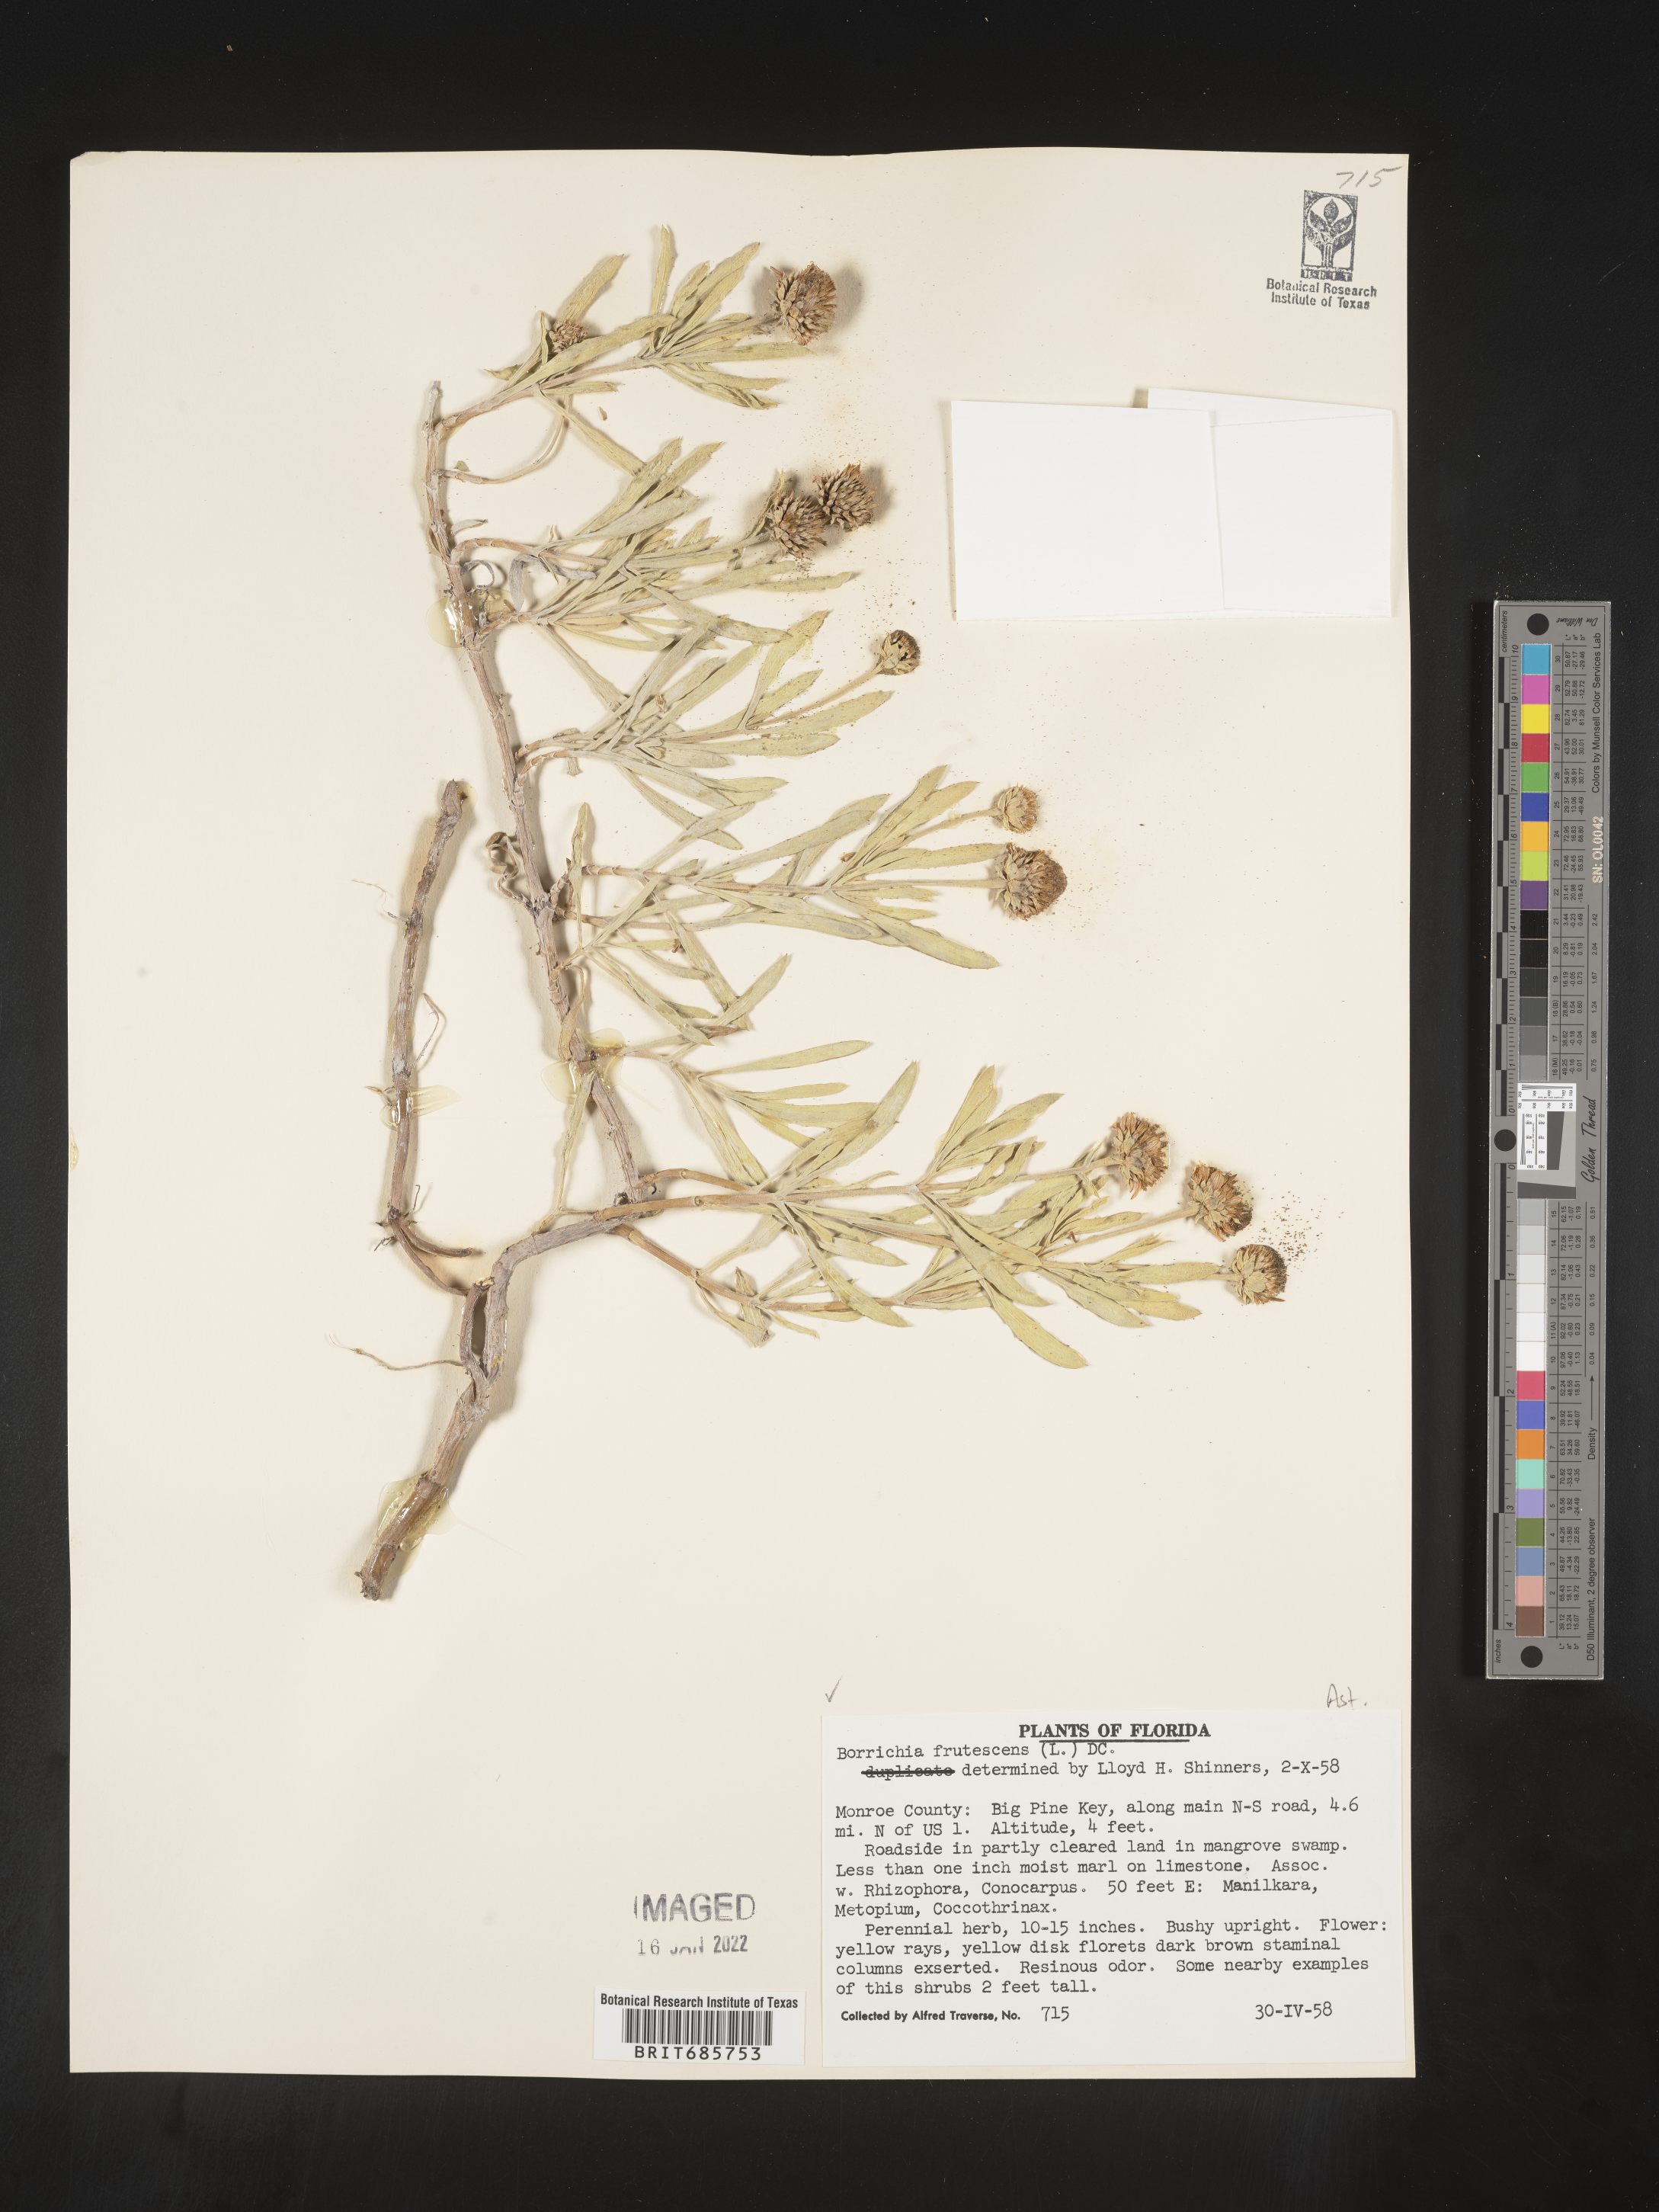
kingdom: Plantae
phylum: Tracheophyta
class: Magnoliopsida
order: Asterales
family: Asteraceae
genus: Borrichia
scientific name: Borrichia frutescens
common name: Sea oxeye
